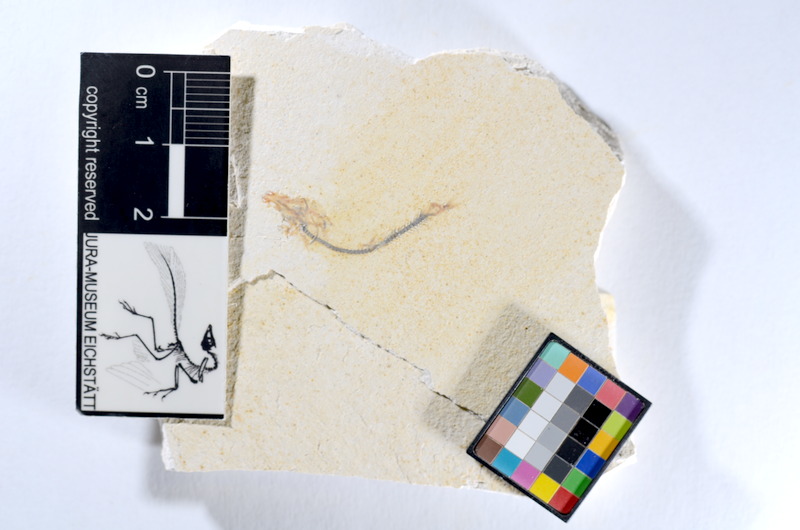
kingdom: Animalia
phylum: Chordata
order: Salmoniformes
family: Orthogonikleithridae
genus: Orthogonikleithrus
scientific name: Orthogonikleithrus hoelli
